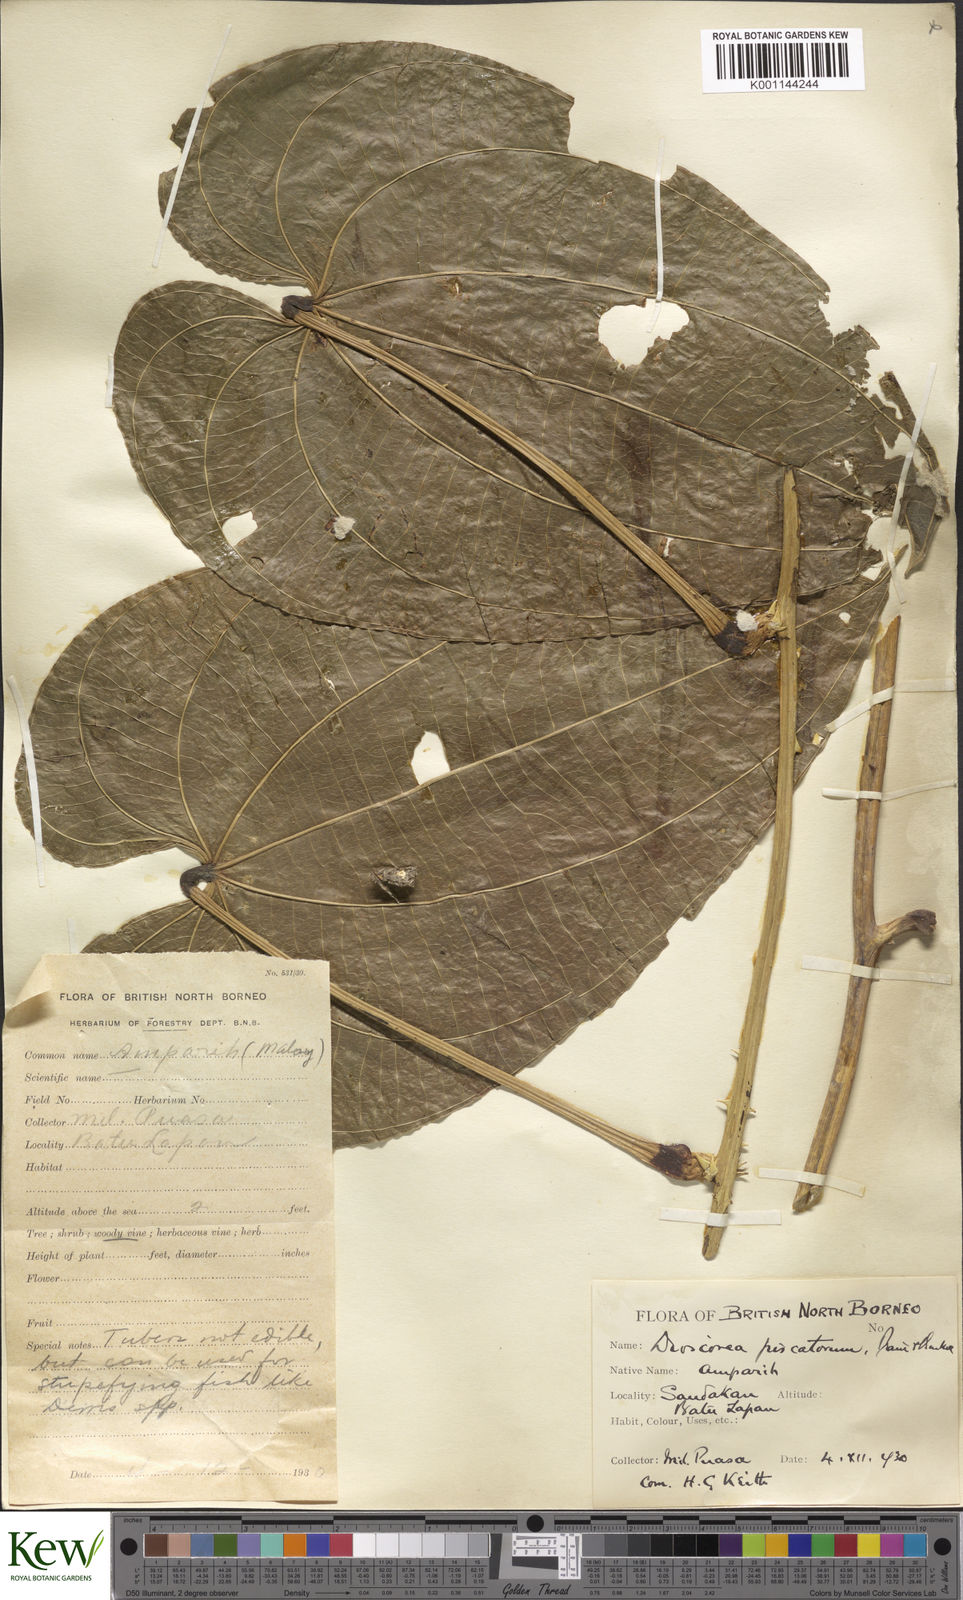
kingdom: Plantae
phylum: Tracheophyta
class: Liliopsida
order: Dioscoreales
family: Dioscoreaceae
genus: Dioscorea
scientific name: Dioscorea piscatorum
